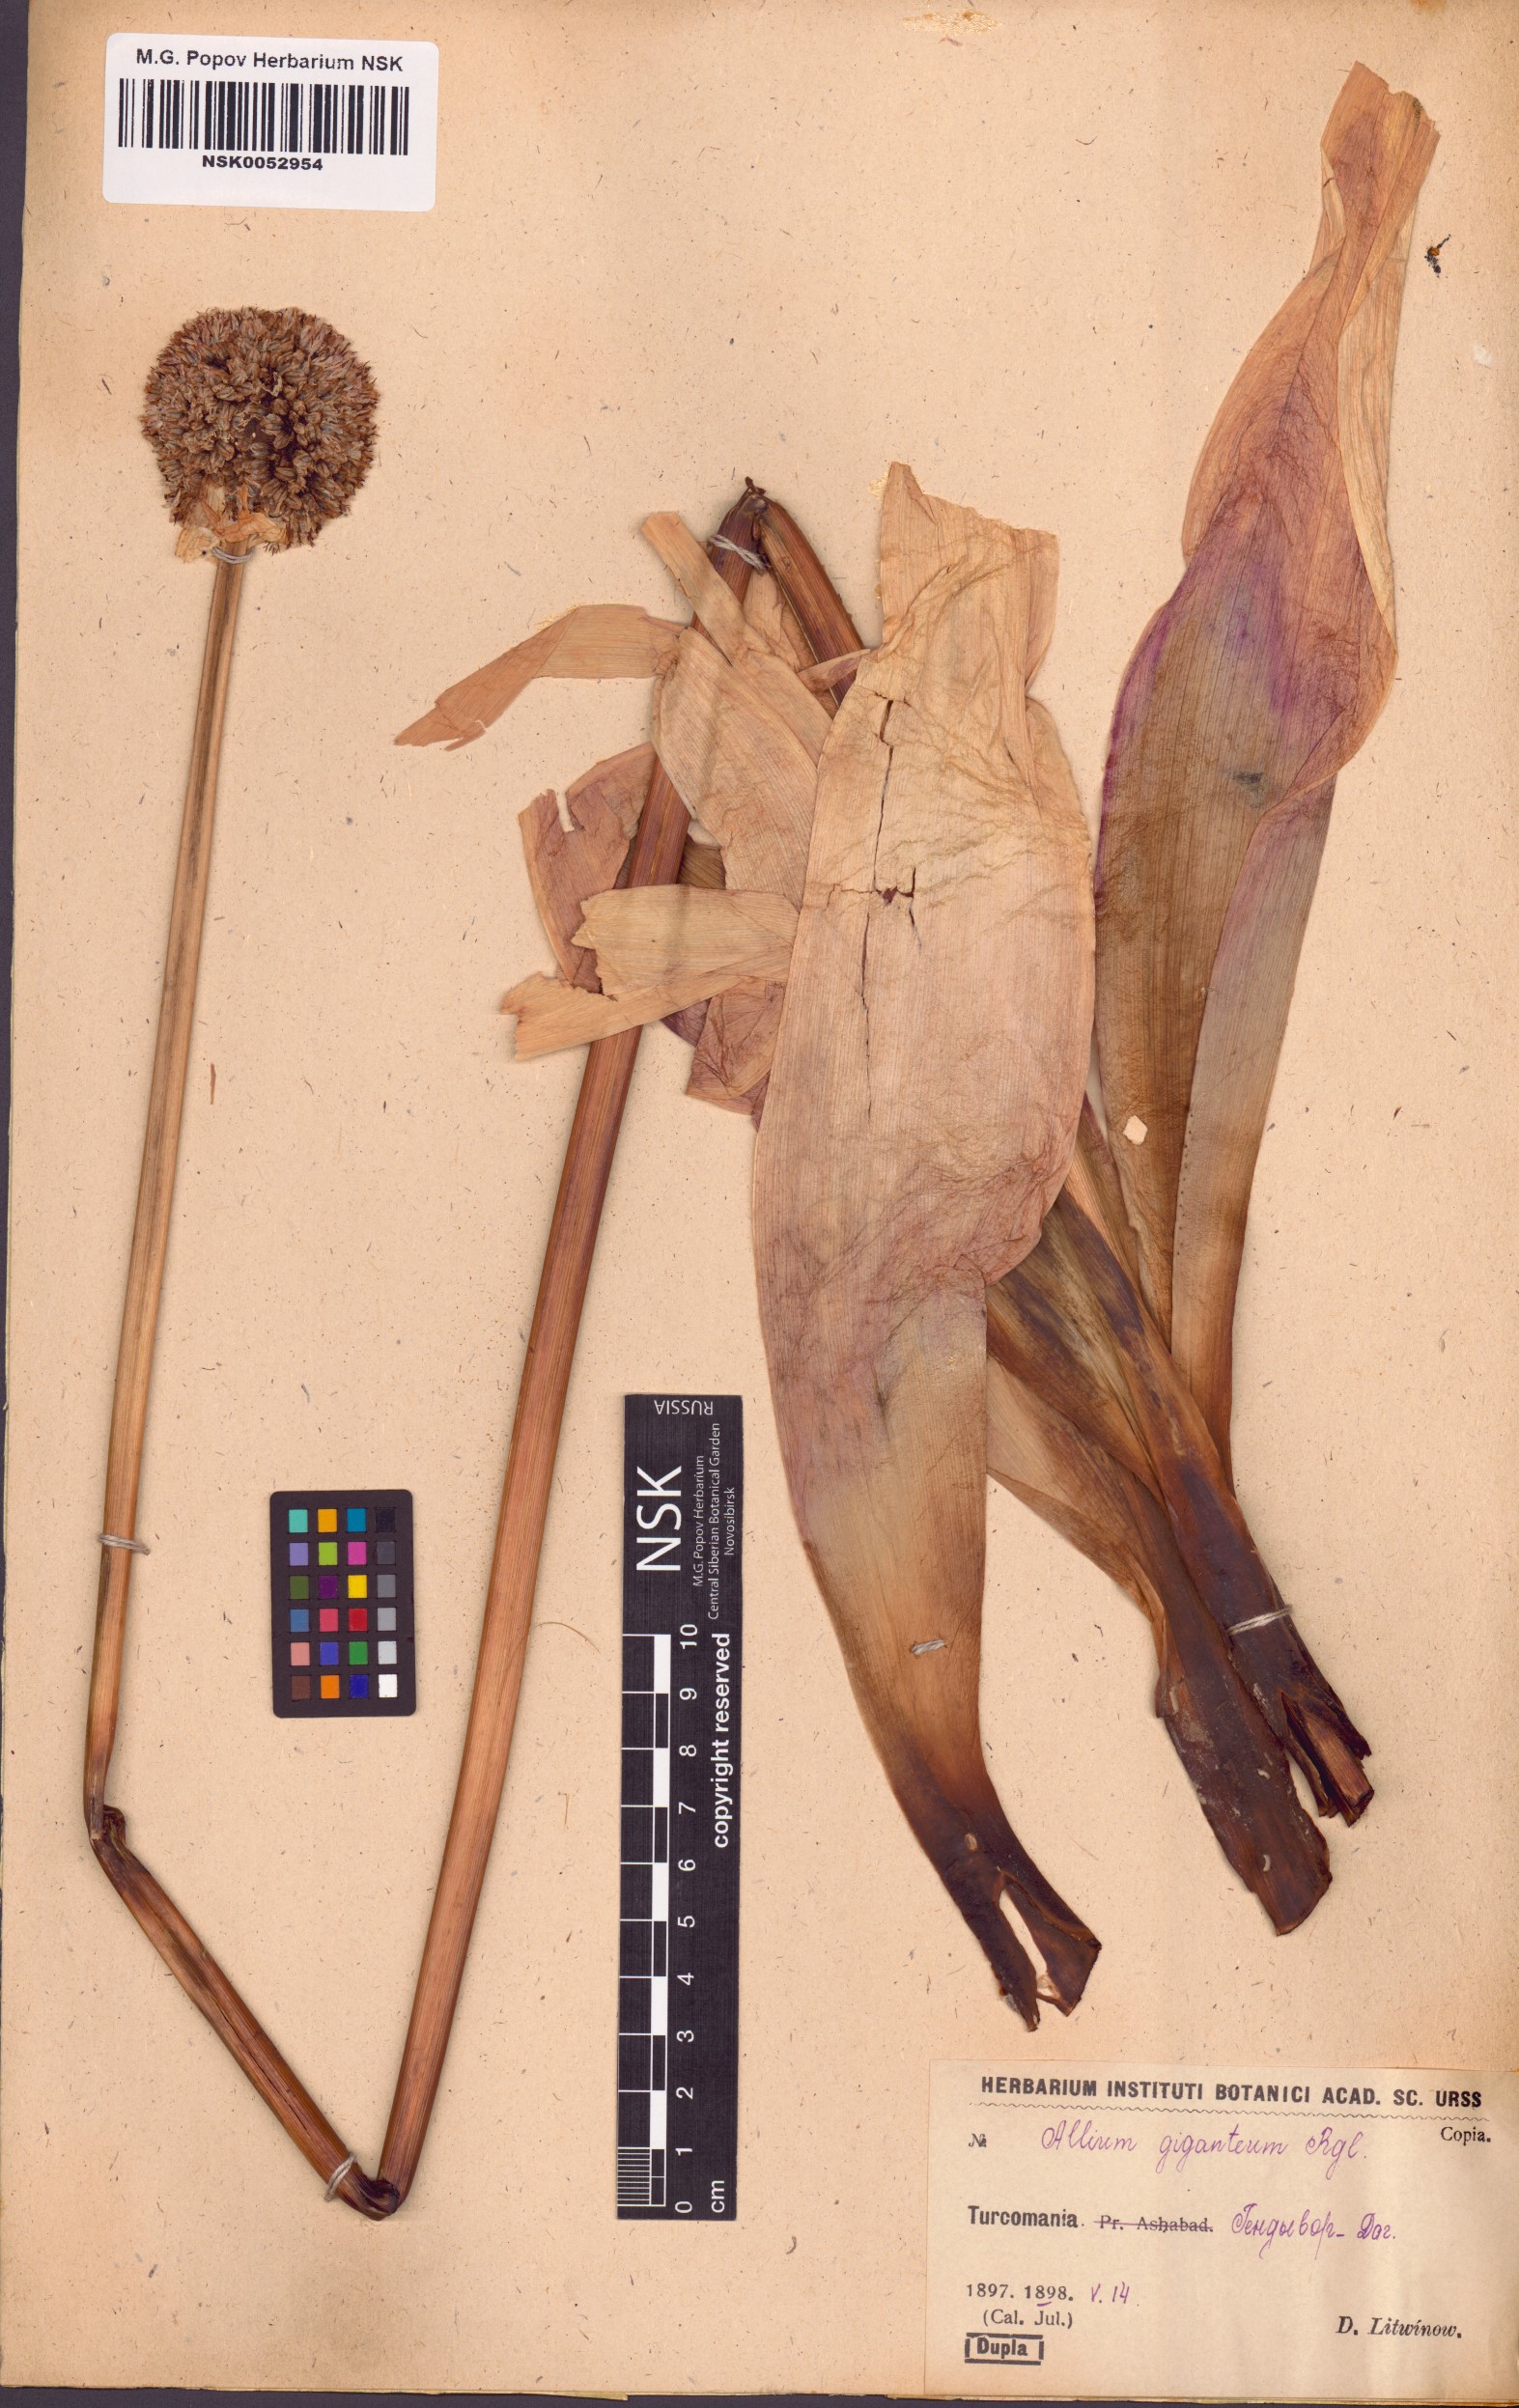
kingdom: Plantae
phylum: Tracheophyta
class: Liliopsida
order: Asparagales
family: Amaryllidaceae
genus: Allium
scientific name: Allium giganteum
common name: Giant onion
